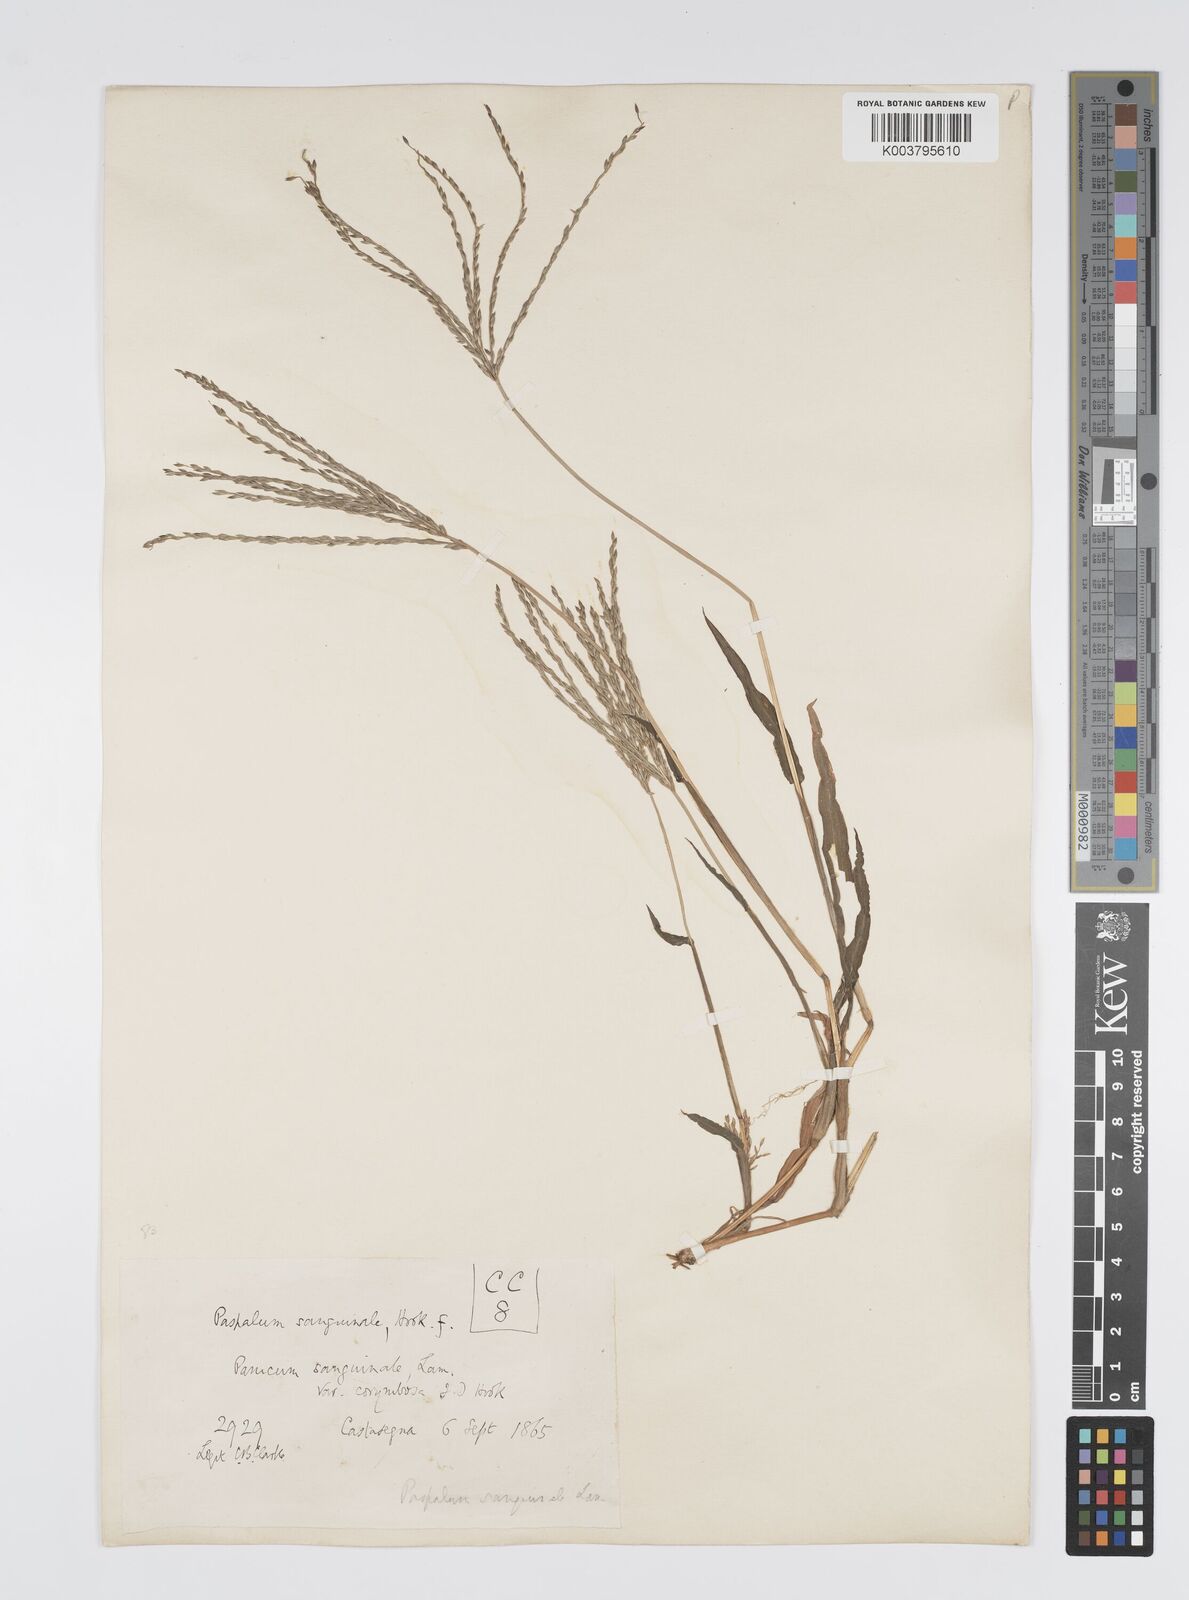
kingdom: Plantae
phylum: Tracheophyta
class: Liliopsida
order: Poales
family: Poaceae
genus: Digitaria
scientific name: Digitaria sanguinalis
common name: Hairy crabgrass
